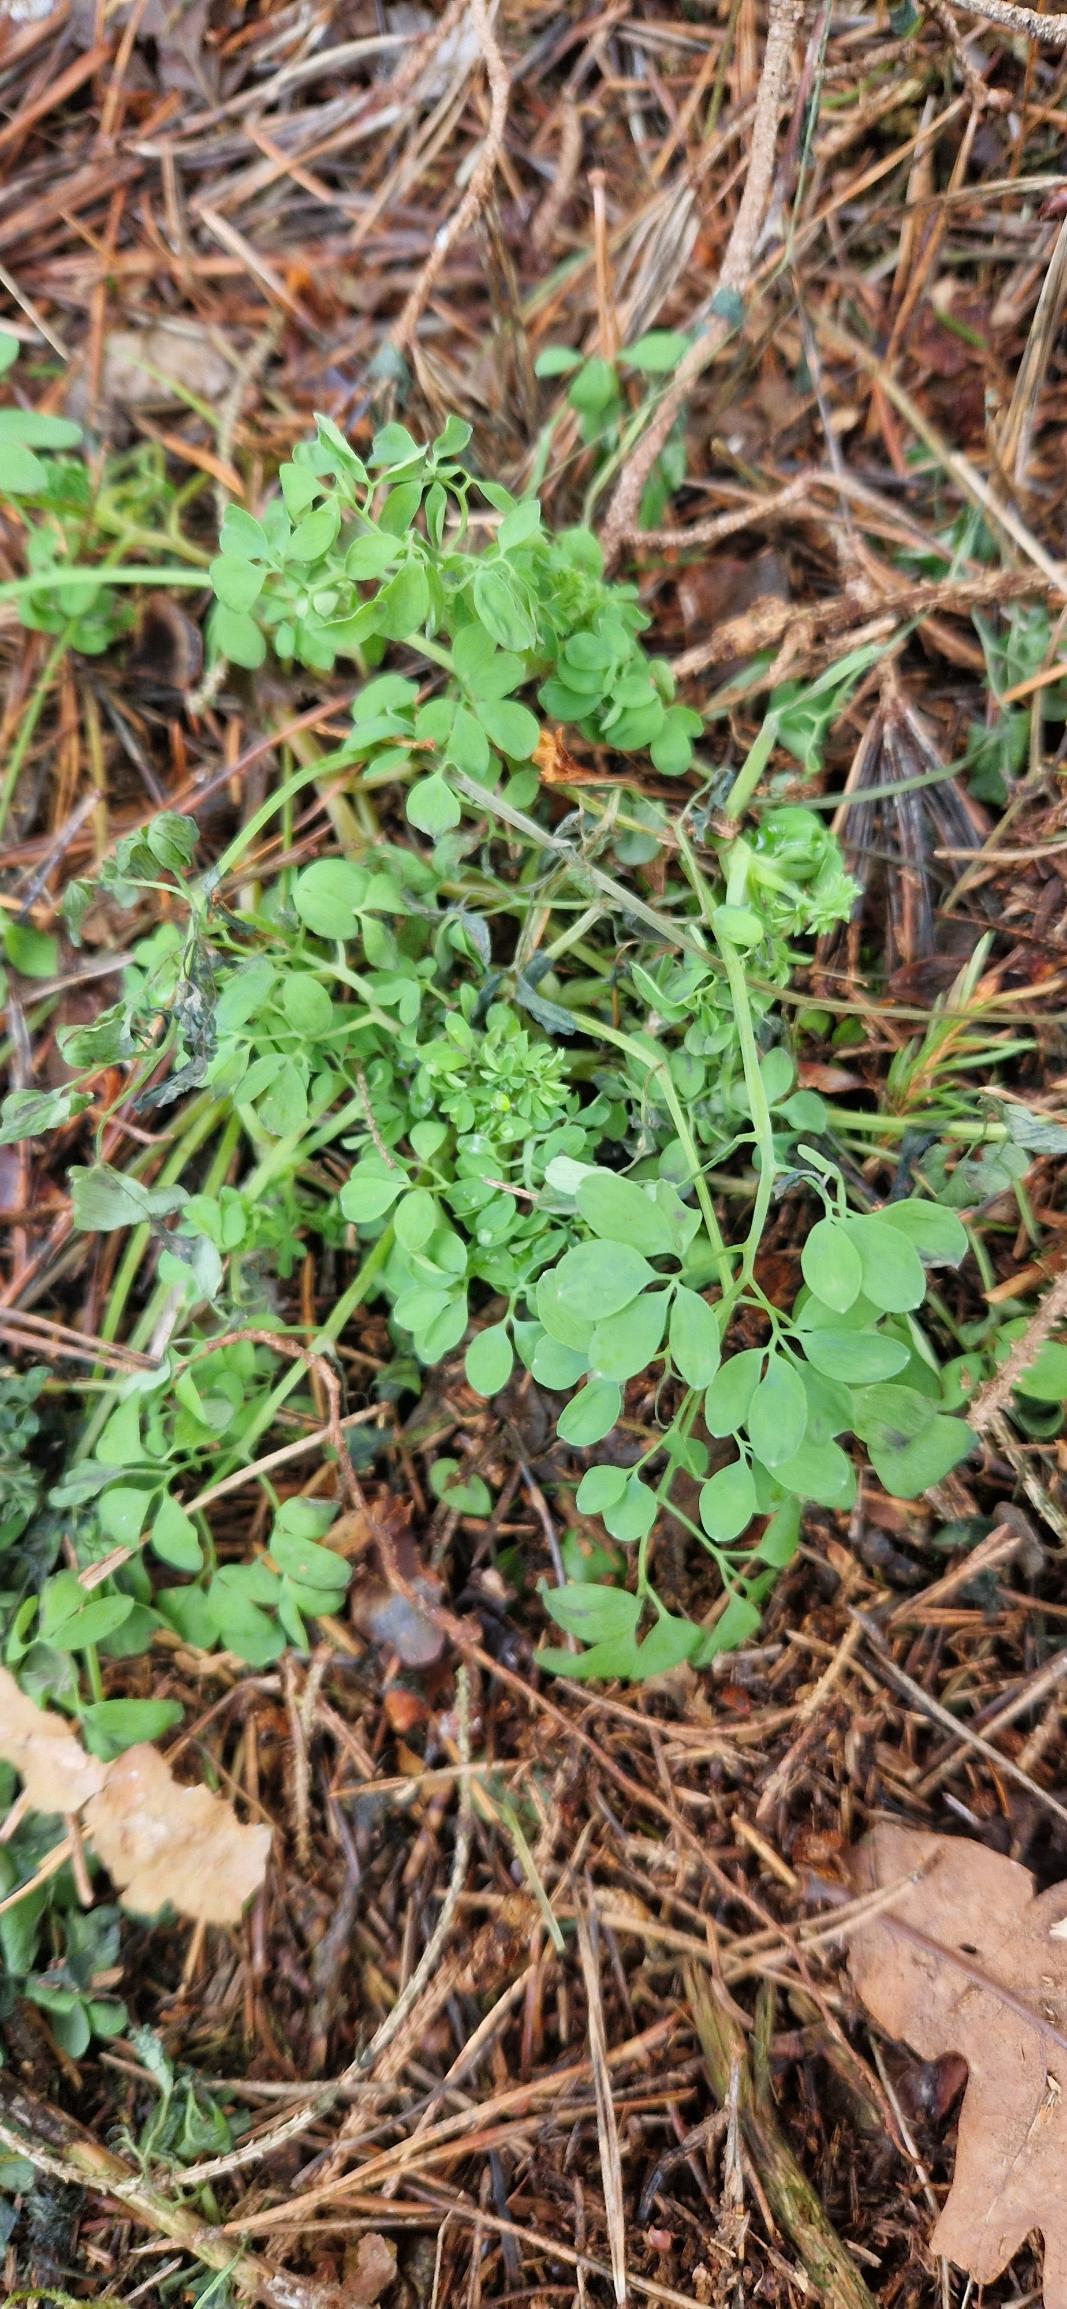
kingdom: Plantae
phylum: Tracheophyta
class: Magnoliopsida
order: Ranunculales
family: Papaveraceae
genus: Ceratocapnos
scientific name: Ceratocapnos claviculata
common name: Klatrende lærkespore
